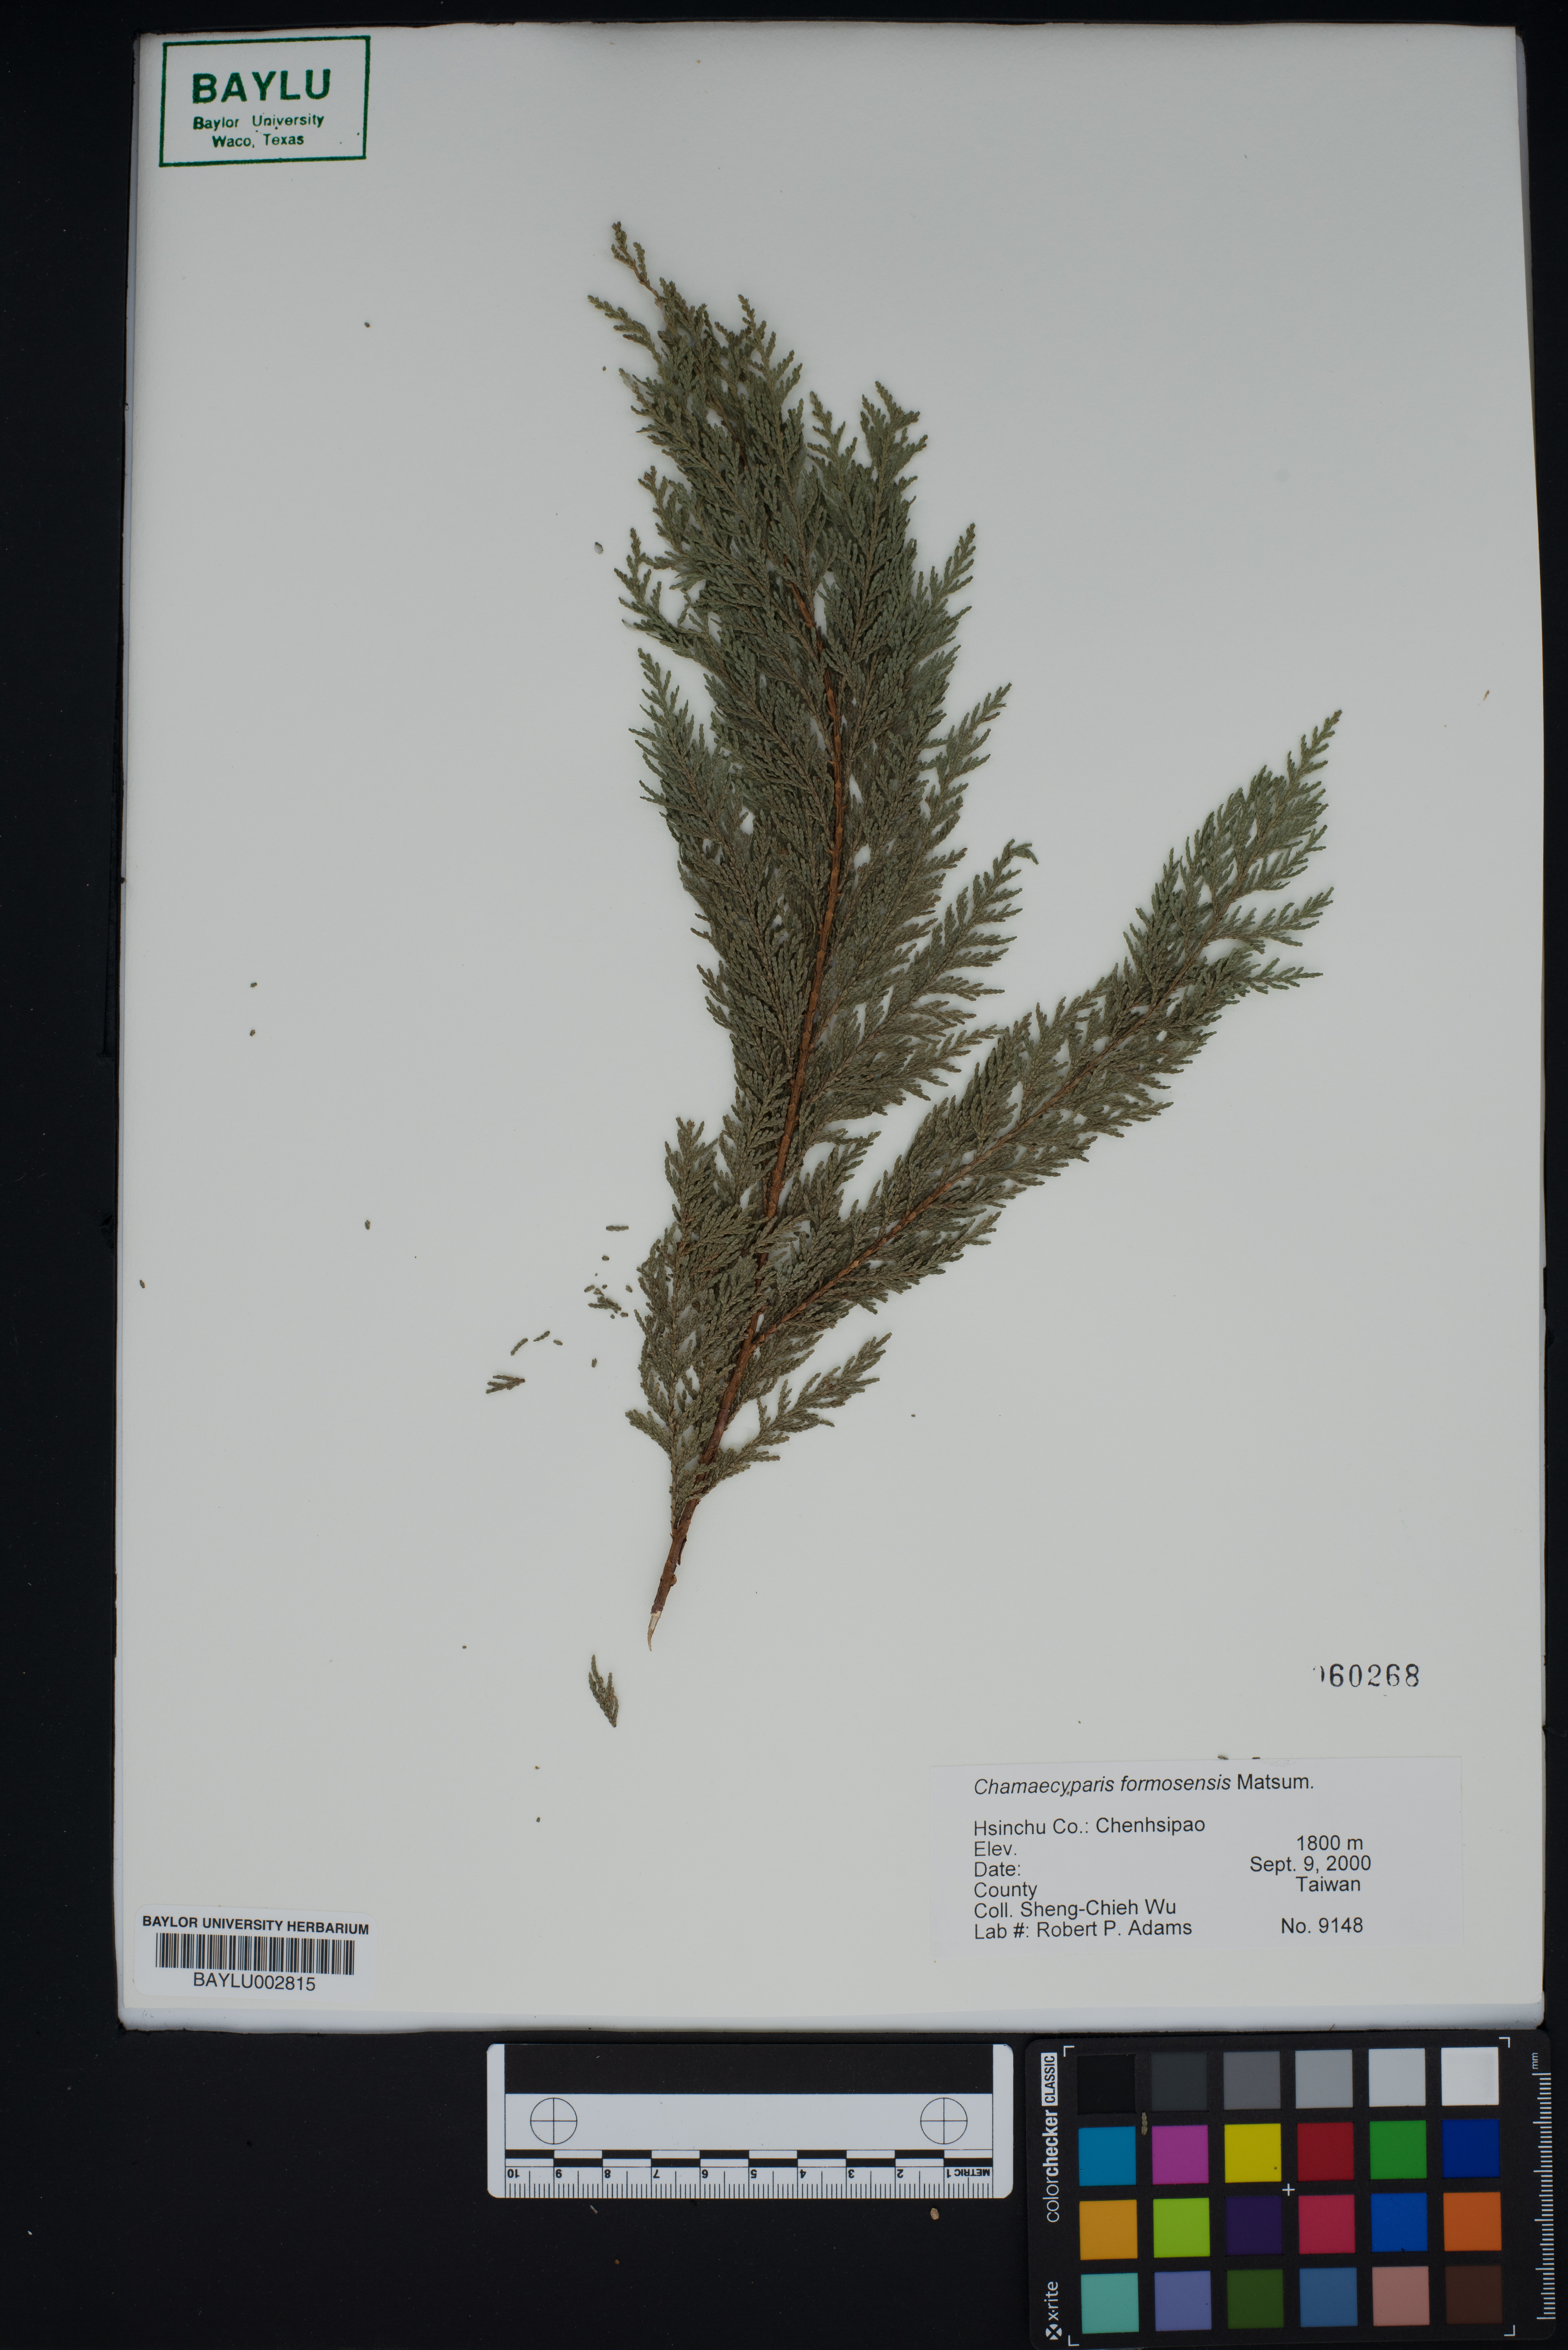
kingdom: Plantae
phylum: Tracheophyta
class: Pinopsida
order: Pinales
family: Cupressaceae
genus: Chamaecyparis
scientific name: Chamaecyparis formosensis
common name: Formosan cypress
